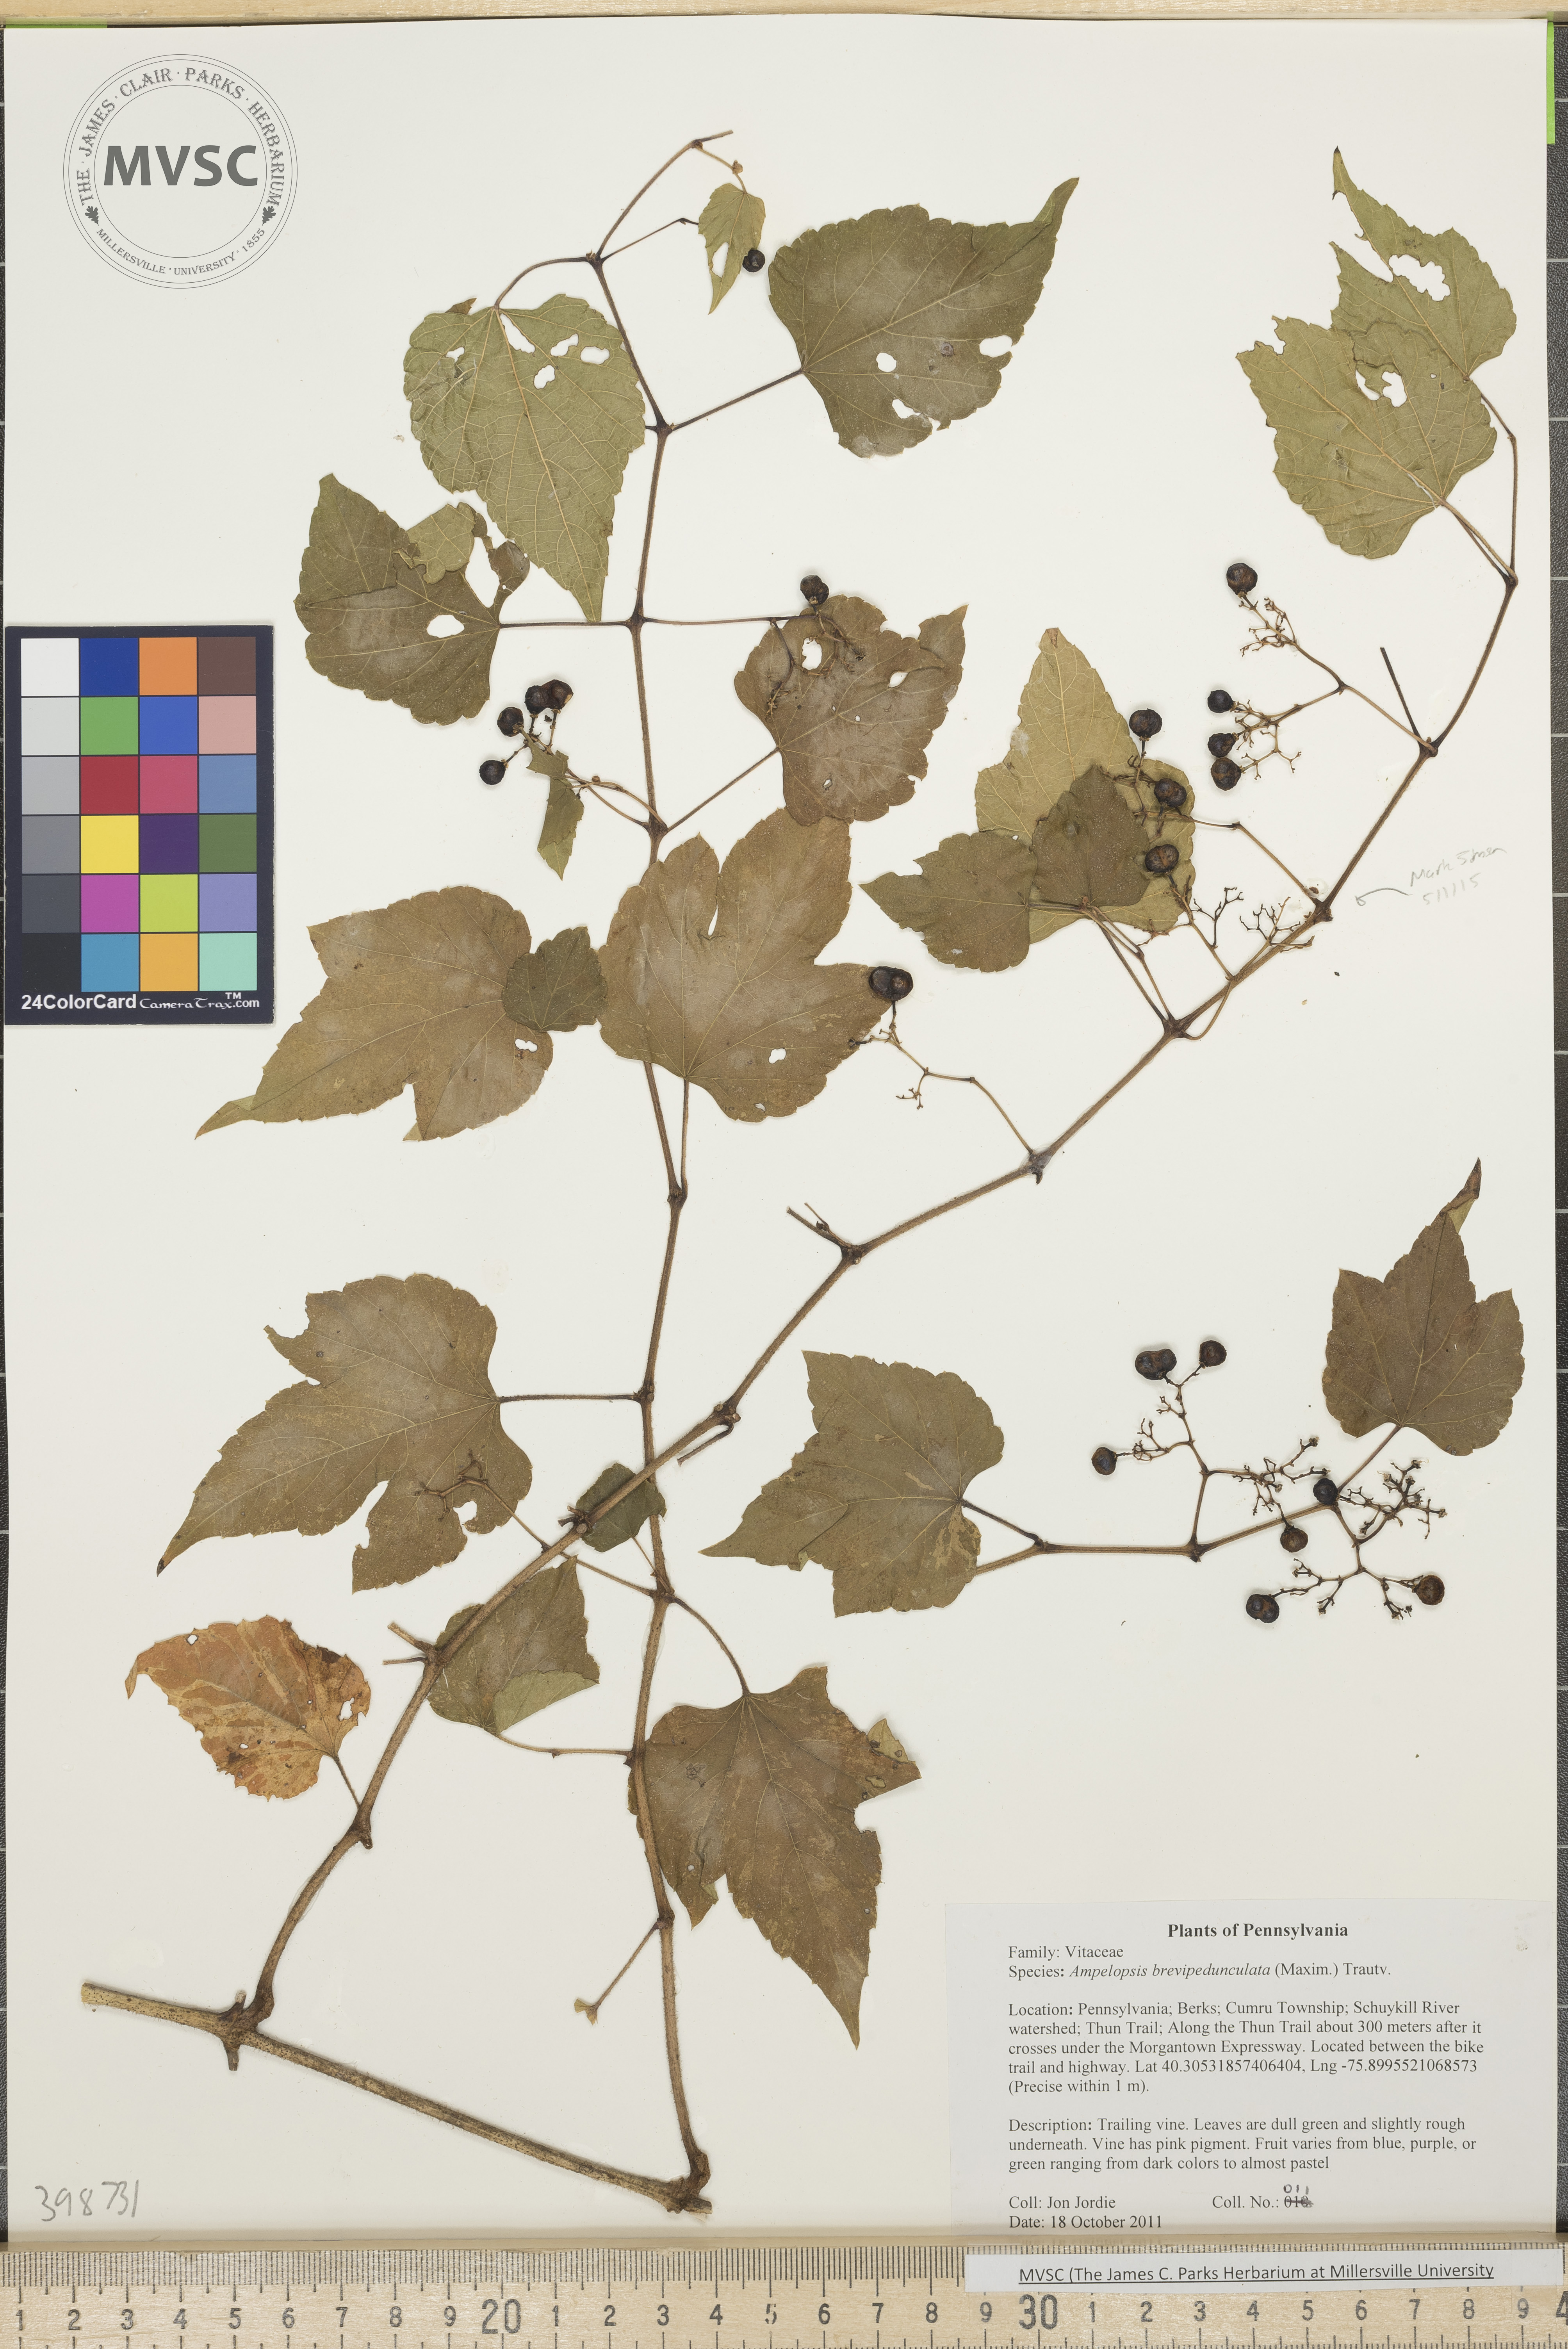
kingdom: Plantae
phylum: Tracheophyta
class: Magnoliopsida
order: Vitales
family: Vitaceae
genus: Ampelopsis
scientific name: Ampelopsis brevipedunculata
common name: Porcelain-berry
